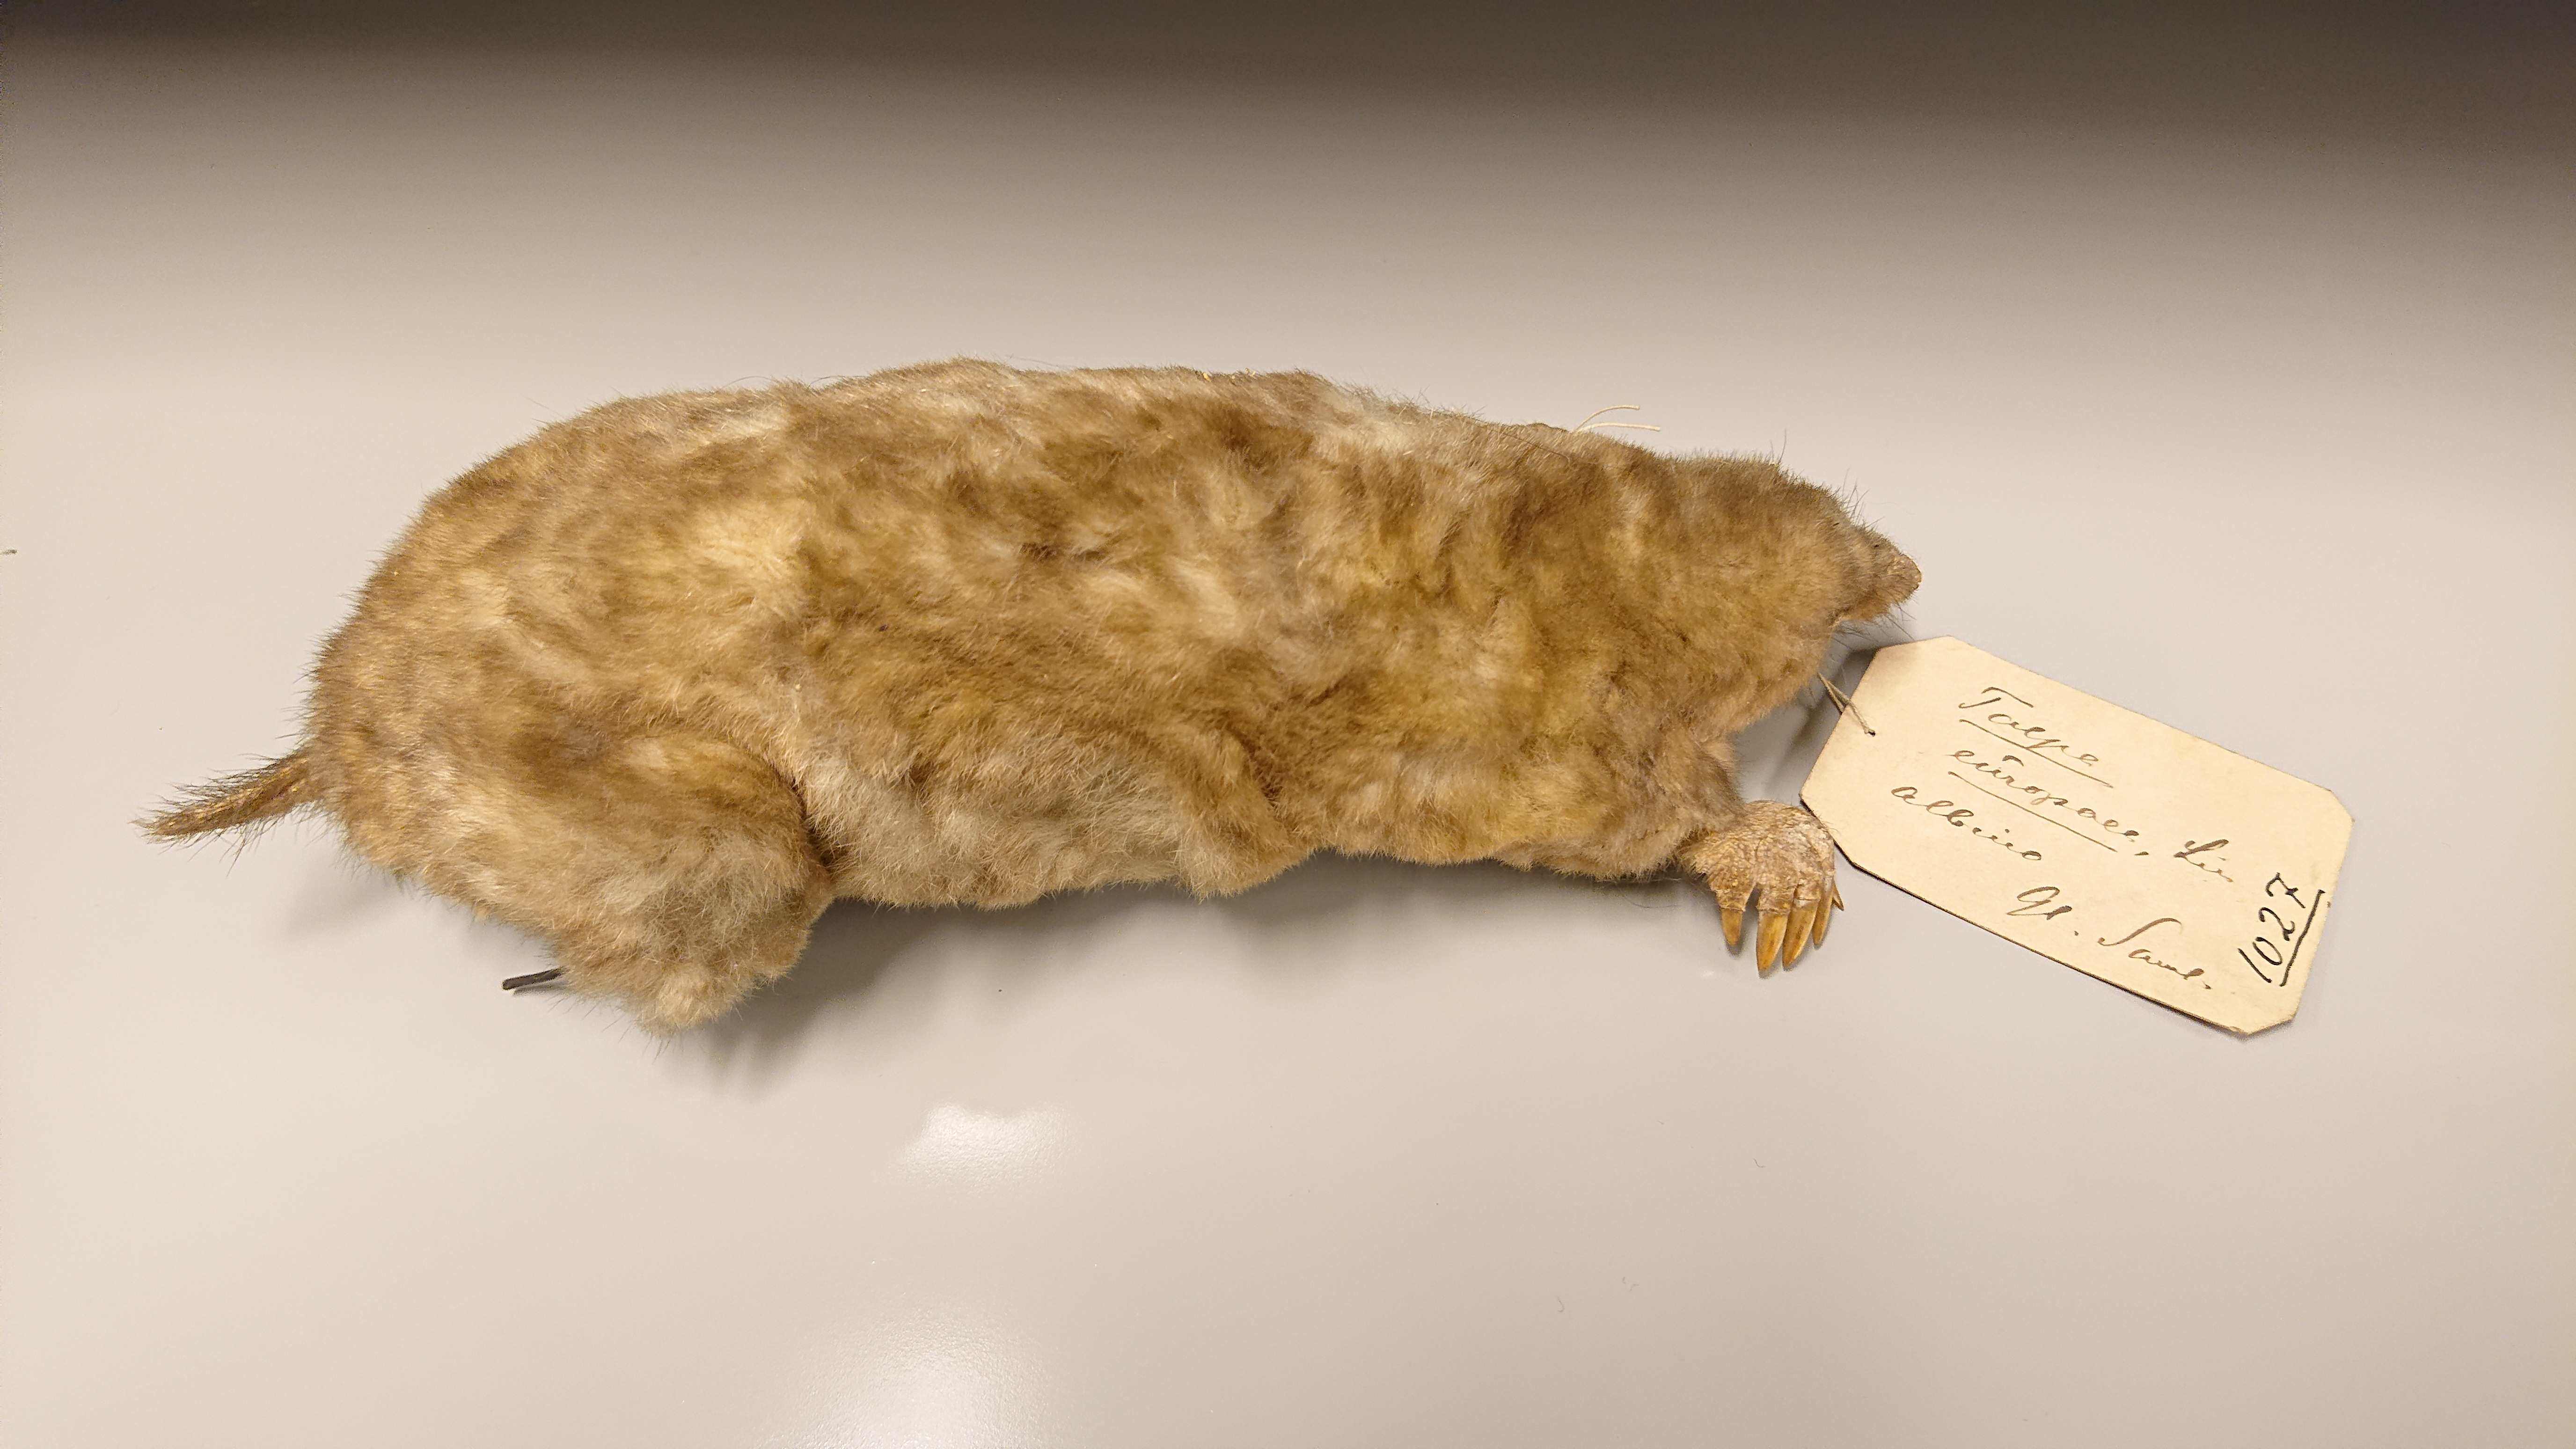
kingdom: Animalia
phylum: Chordata
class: Mammalia
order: Soricomorpha
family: Talpidae
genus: Talpa
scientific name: Talpa europaea
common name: European mole
